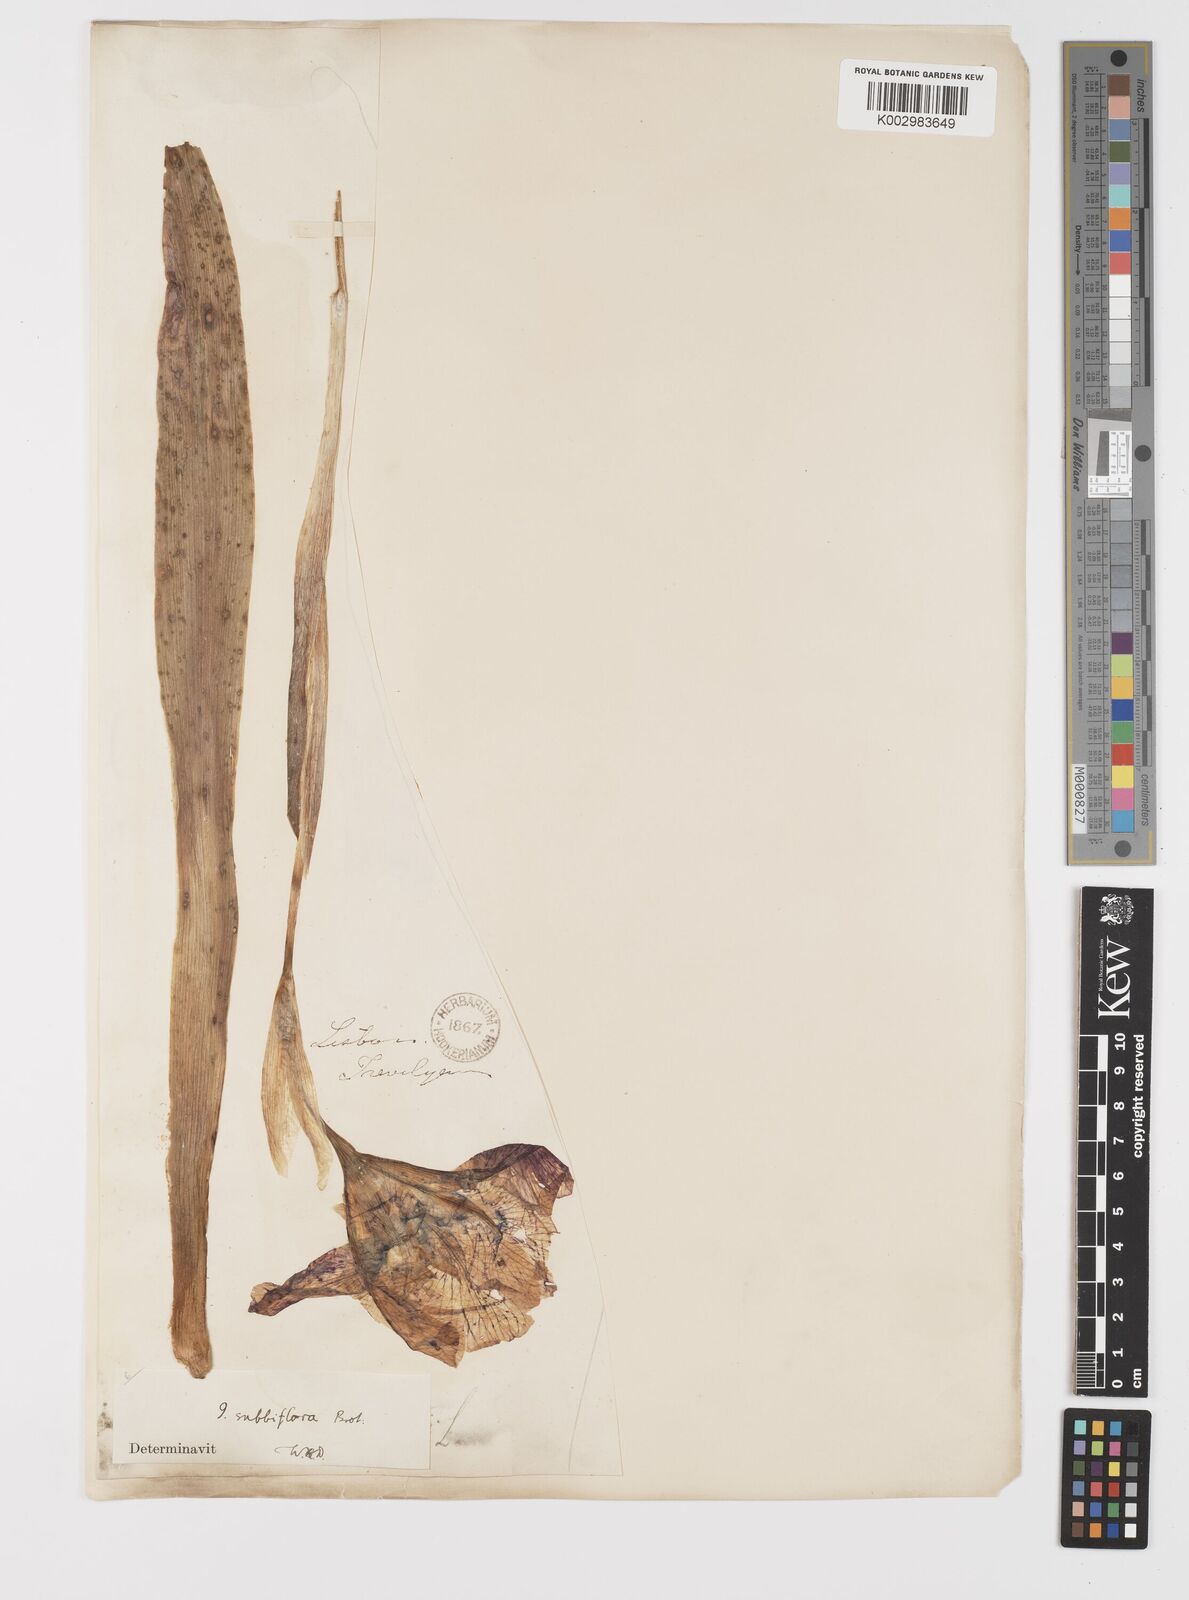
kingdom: Plantae
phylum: Tracheophyta
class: Liliopsida
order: Asparagales
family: Iridaceae
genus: Iris
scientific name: Iris lutescens
